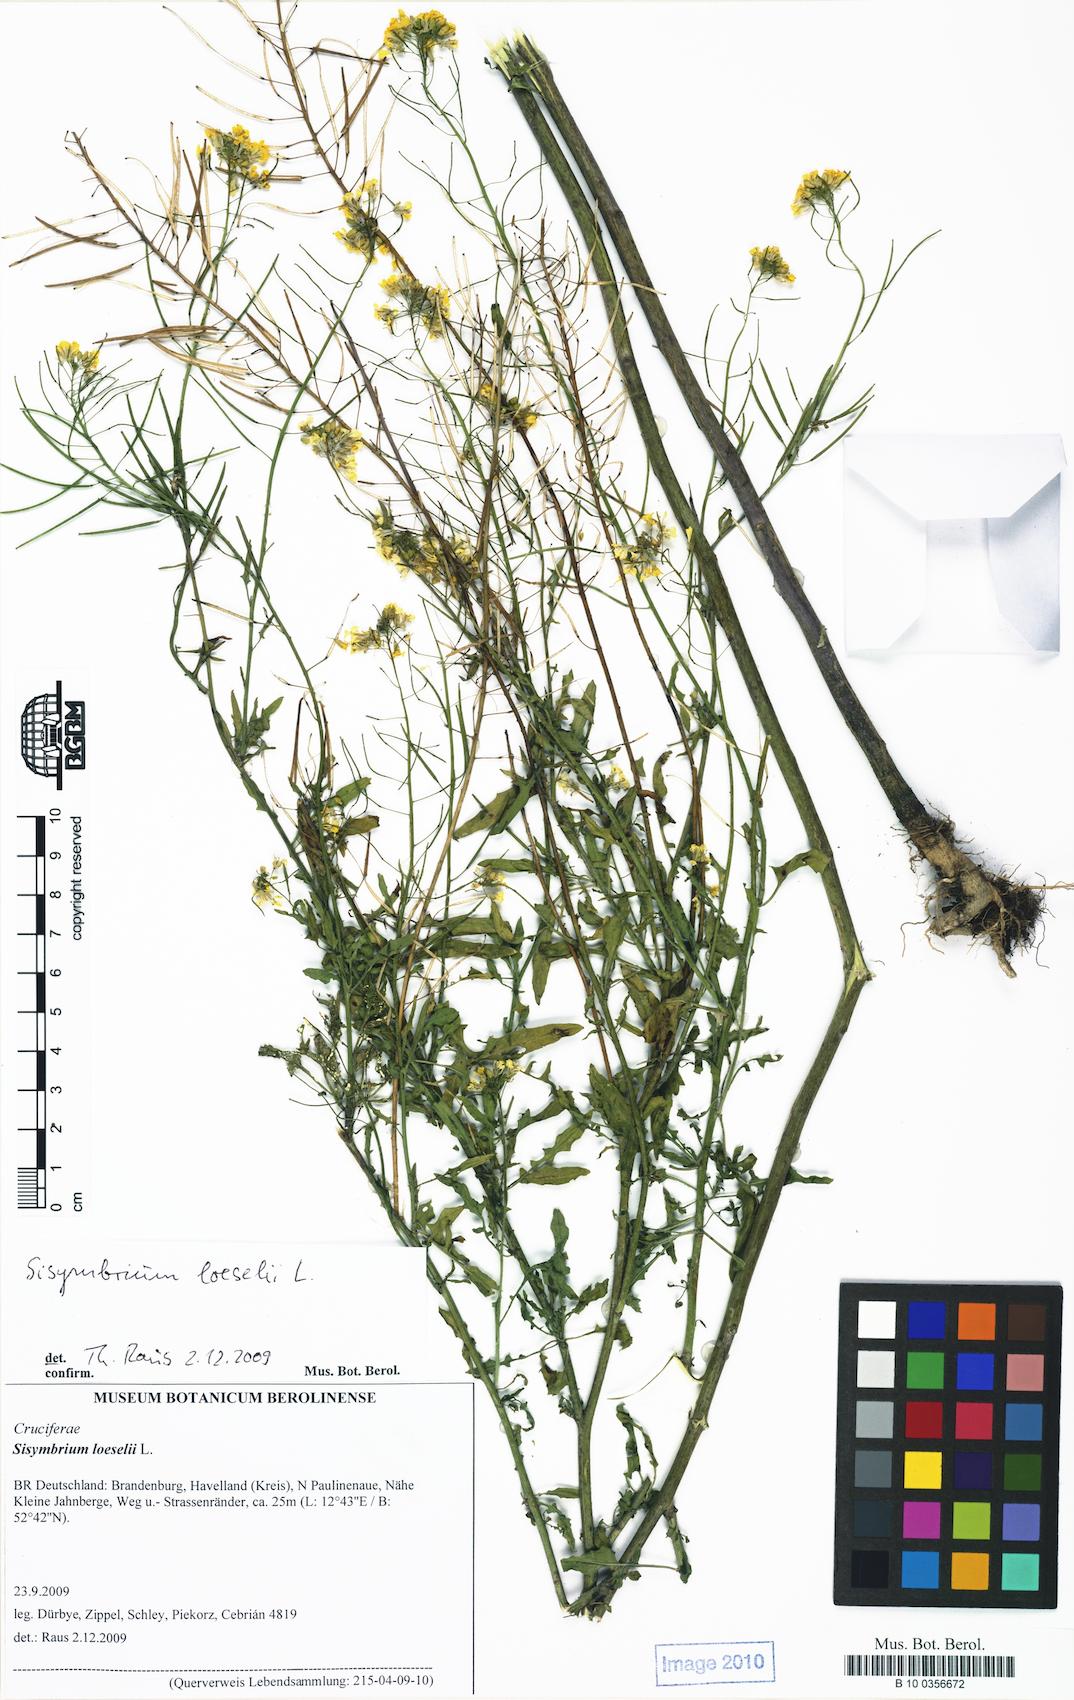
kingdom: Plantae
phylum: Tracheophyta
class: Magnoliopsida
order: Brassicales
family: Brassicaceae
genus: Sisymbrium
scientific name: Sisymbrium loeselii
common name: False london-rocket
